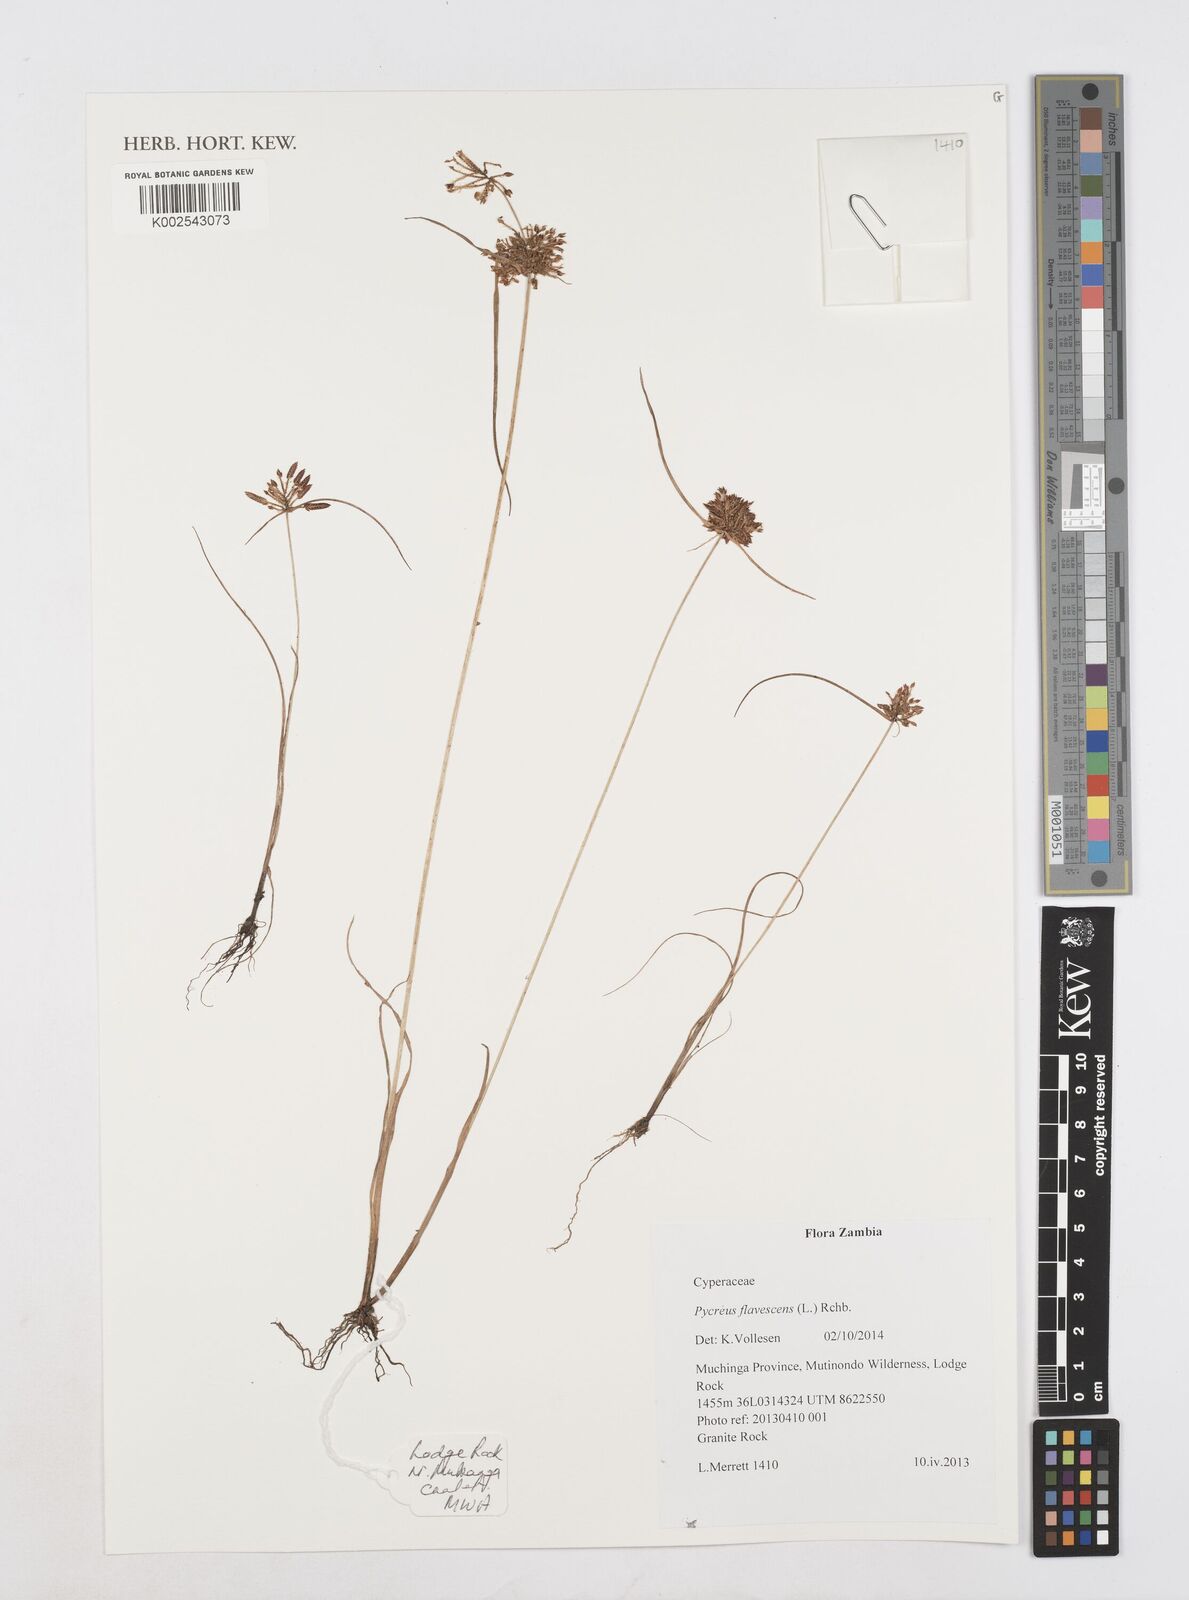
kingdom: Plantae
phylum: Tracheophyta
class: Liliopsida
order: Poales
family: Cyperaceae
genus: Cyperus
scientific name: Cyperus flavescens
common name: Yellow galingale
